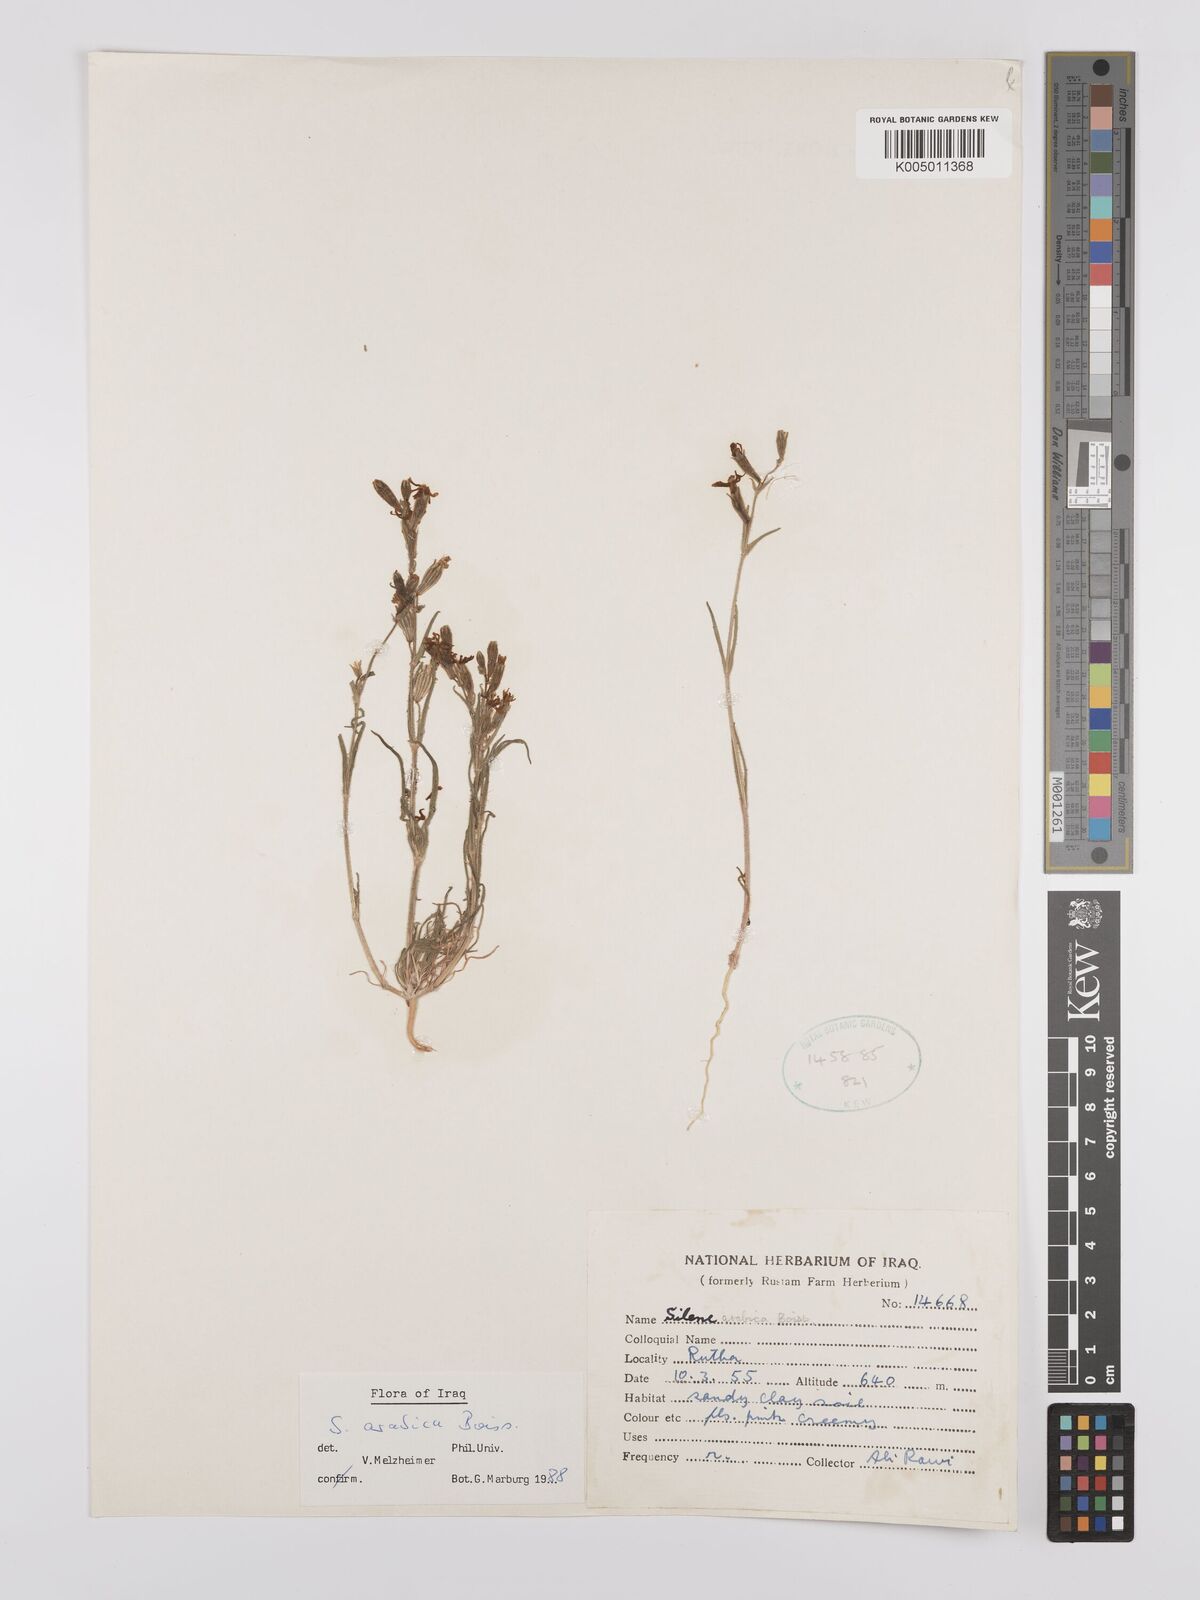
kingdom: Plantae
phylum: Tracheophyta
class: Magnoliopsida
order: Caryophyllales
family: Caryophyllaceae
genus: Silene
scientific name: Silene arabica
